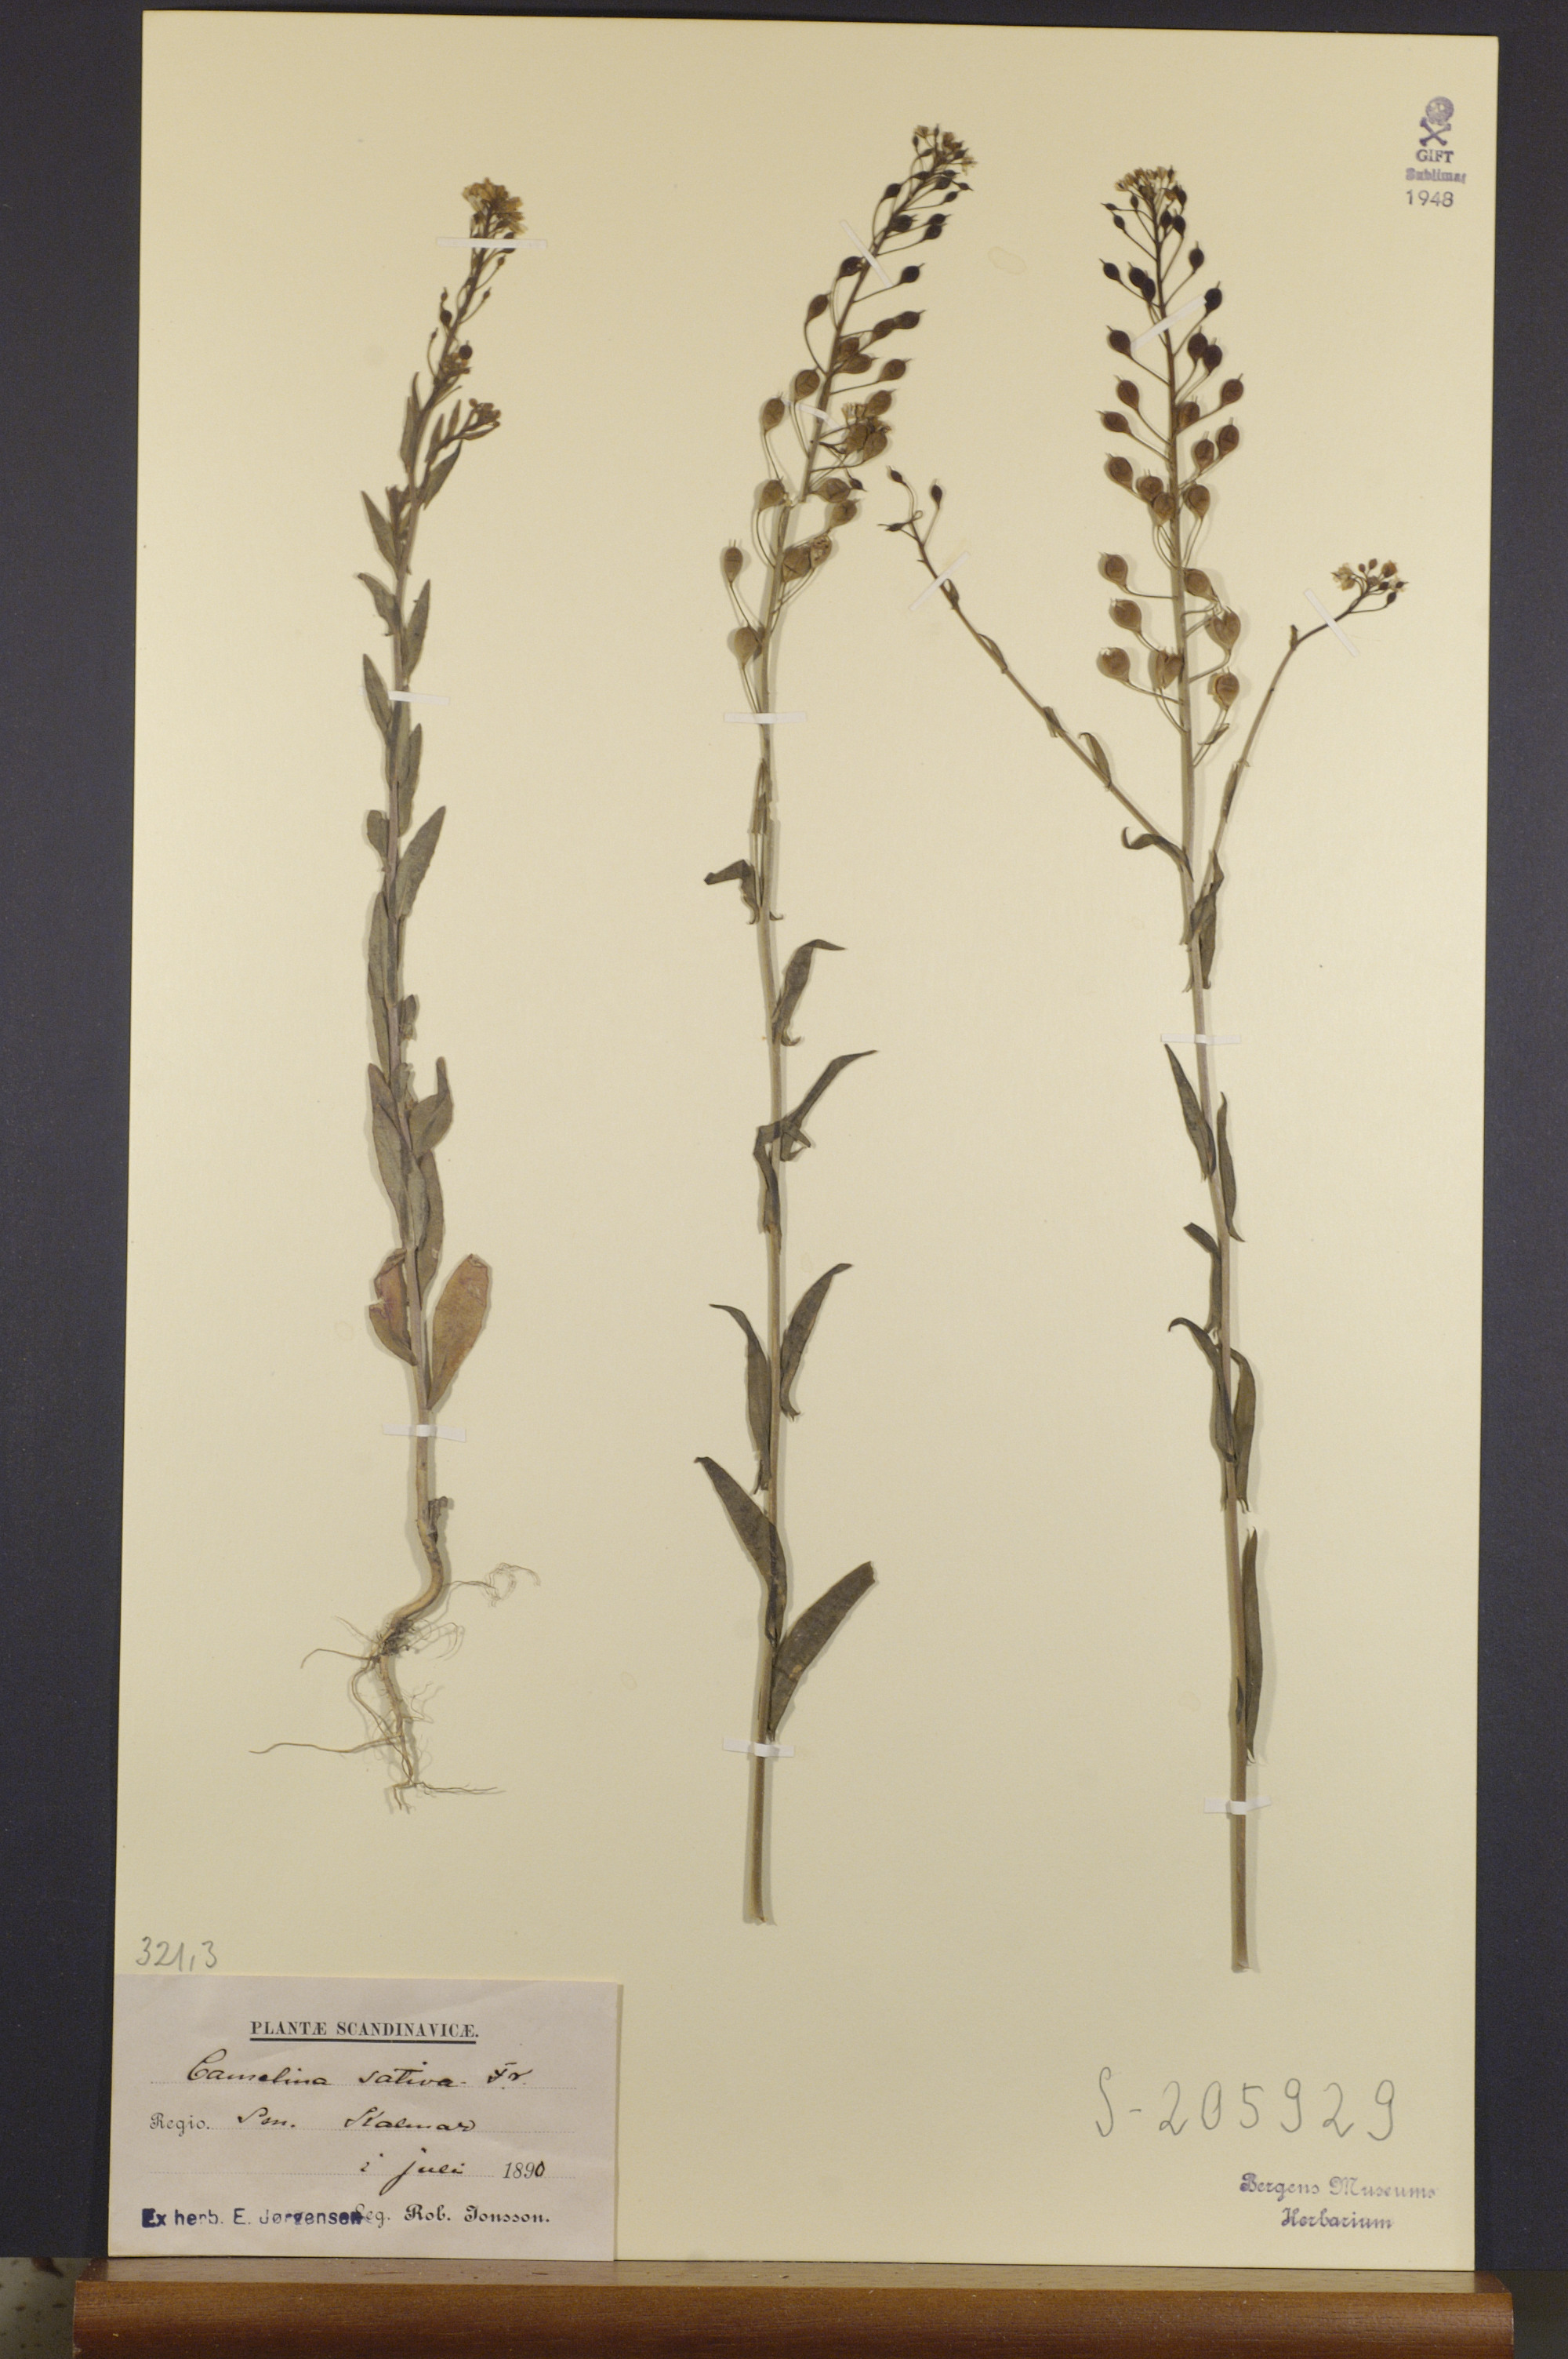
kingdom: Plantae
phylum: Tracheophyta
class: Magnoliopsida
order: Brassicales
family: Brassicaceae
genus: Camelina
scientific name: Camelina sativa
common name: Gold-of-pleasure
